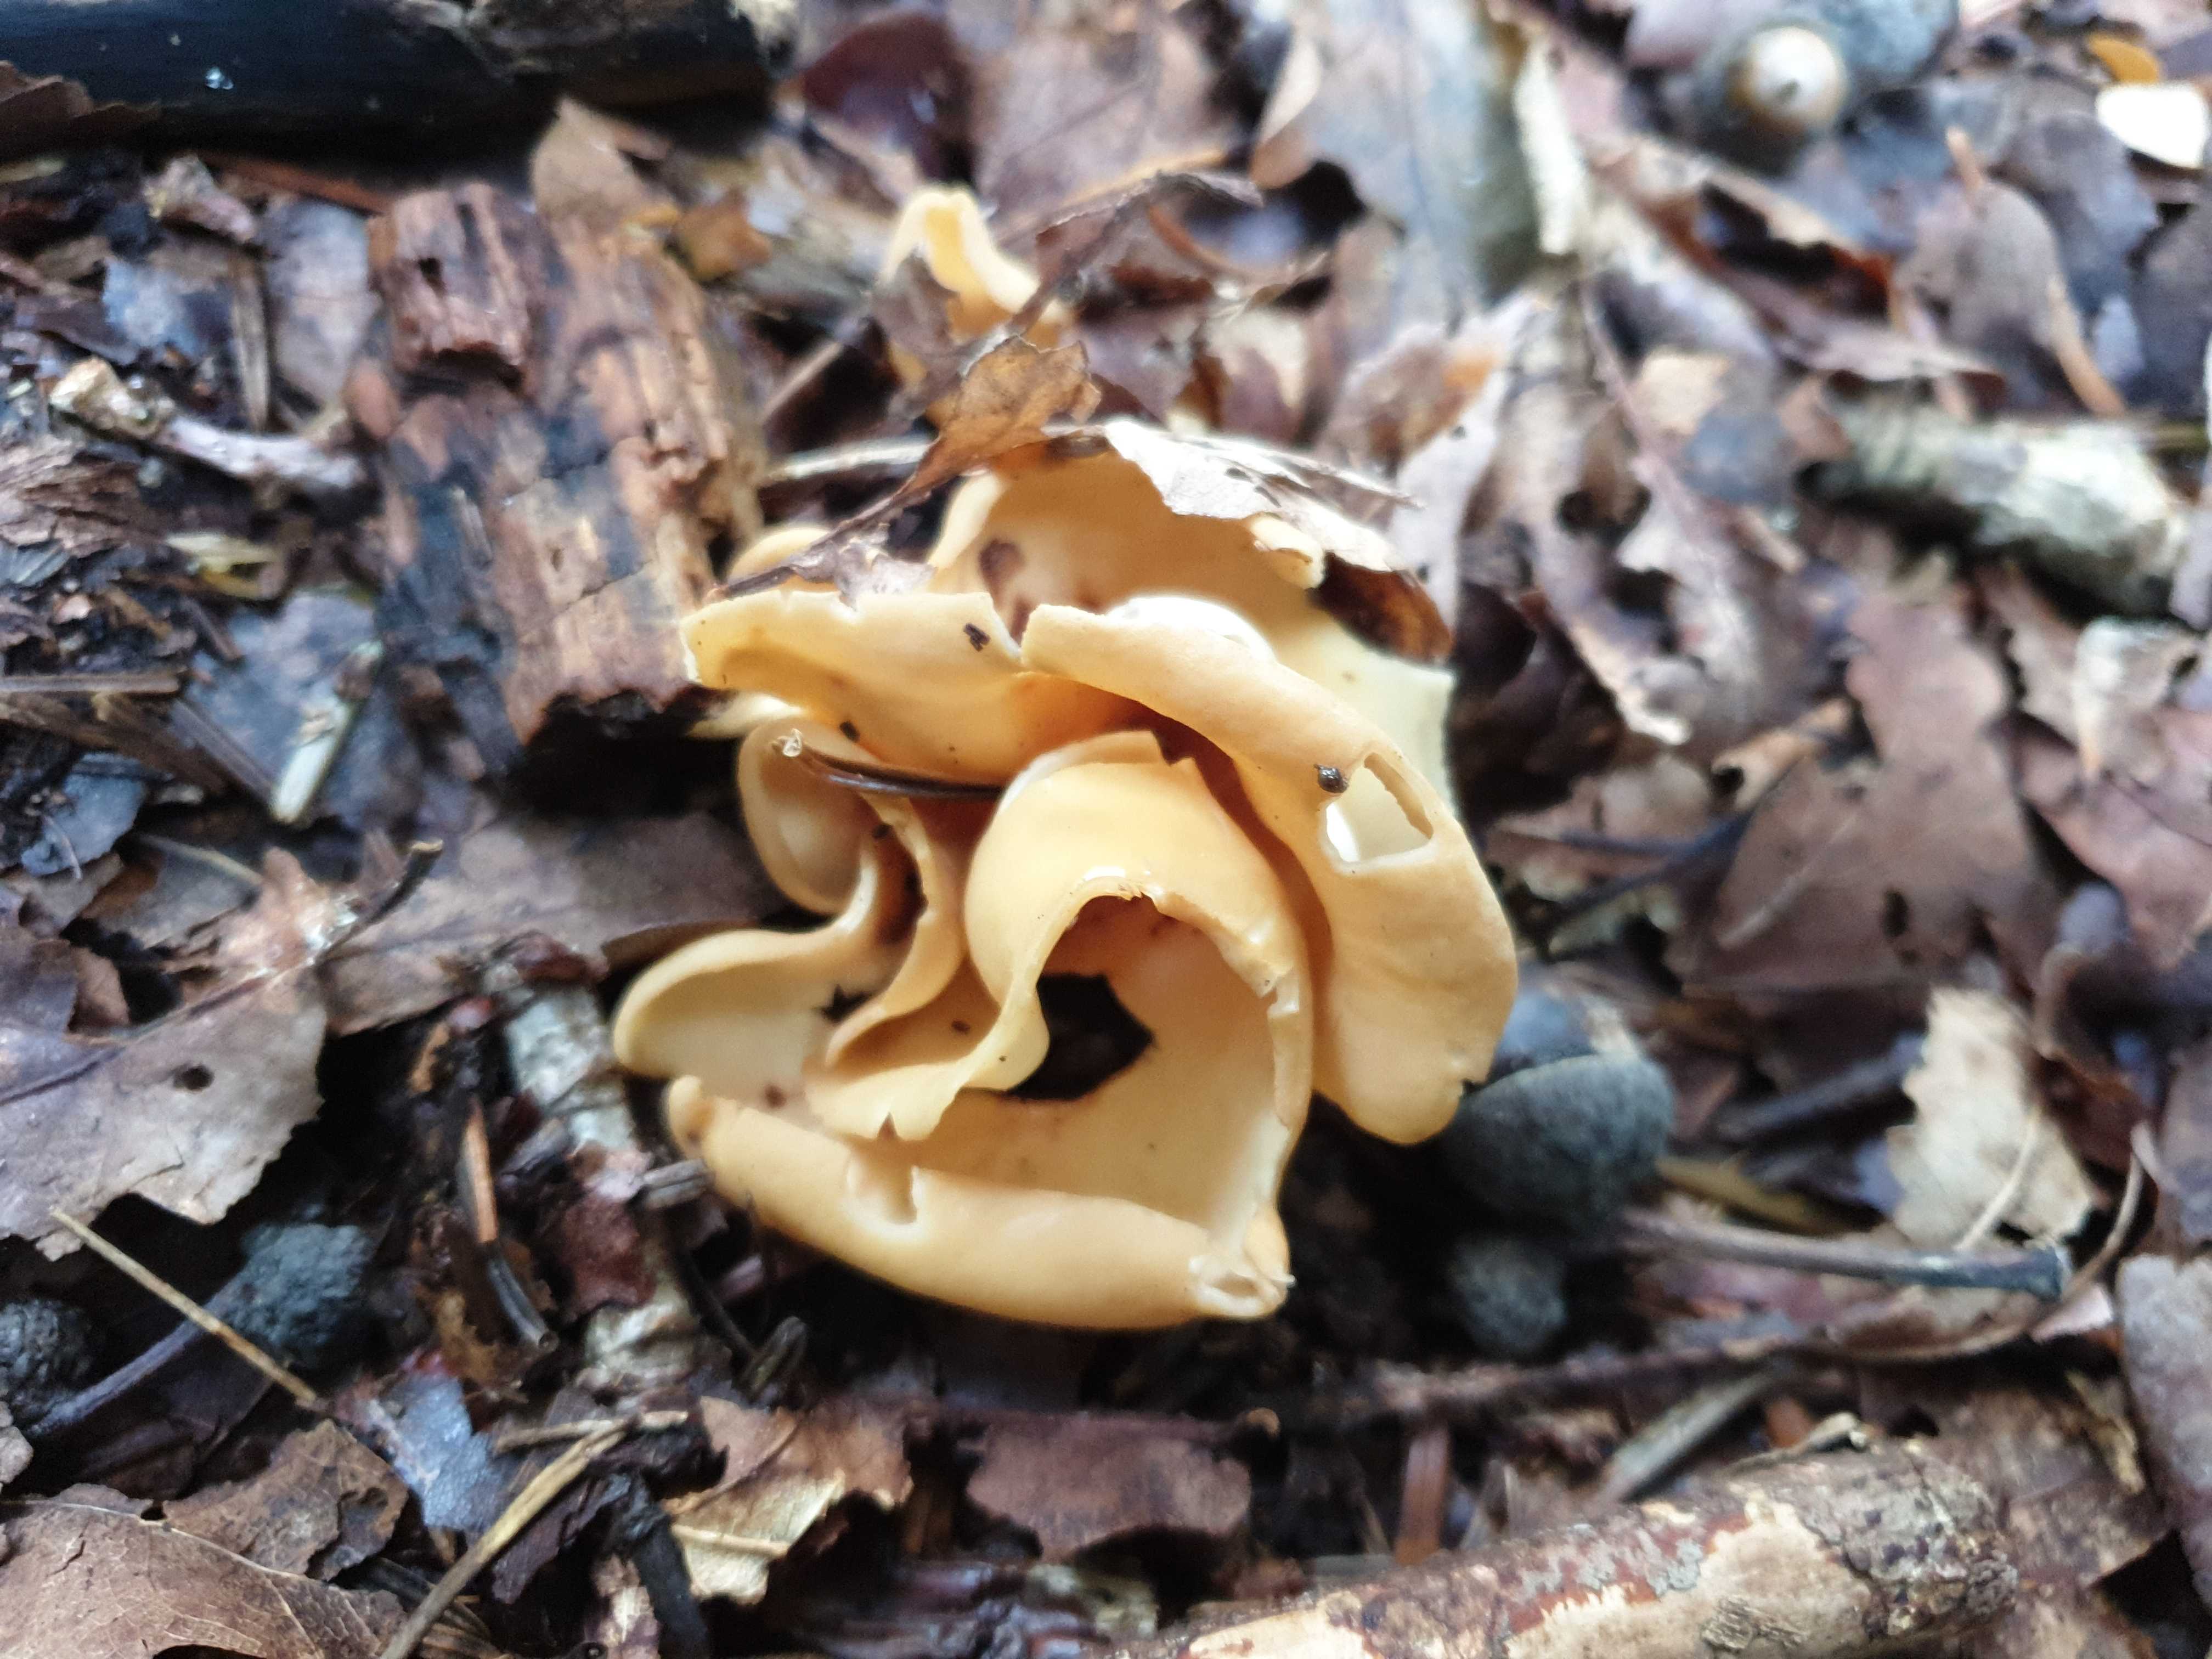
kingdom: Fungi
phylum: Ascomycota
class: Pezizomycetes
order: Pezizales
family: Otideaceae
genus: Otidea
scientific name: Otidea onotica
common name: æsel-ørebæger
